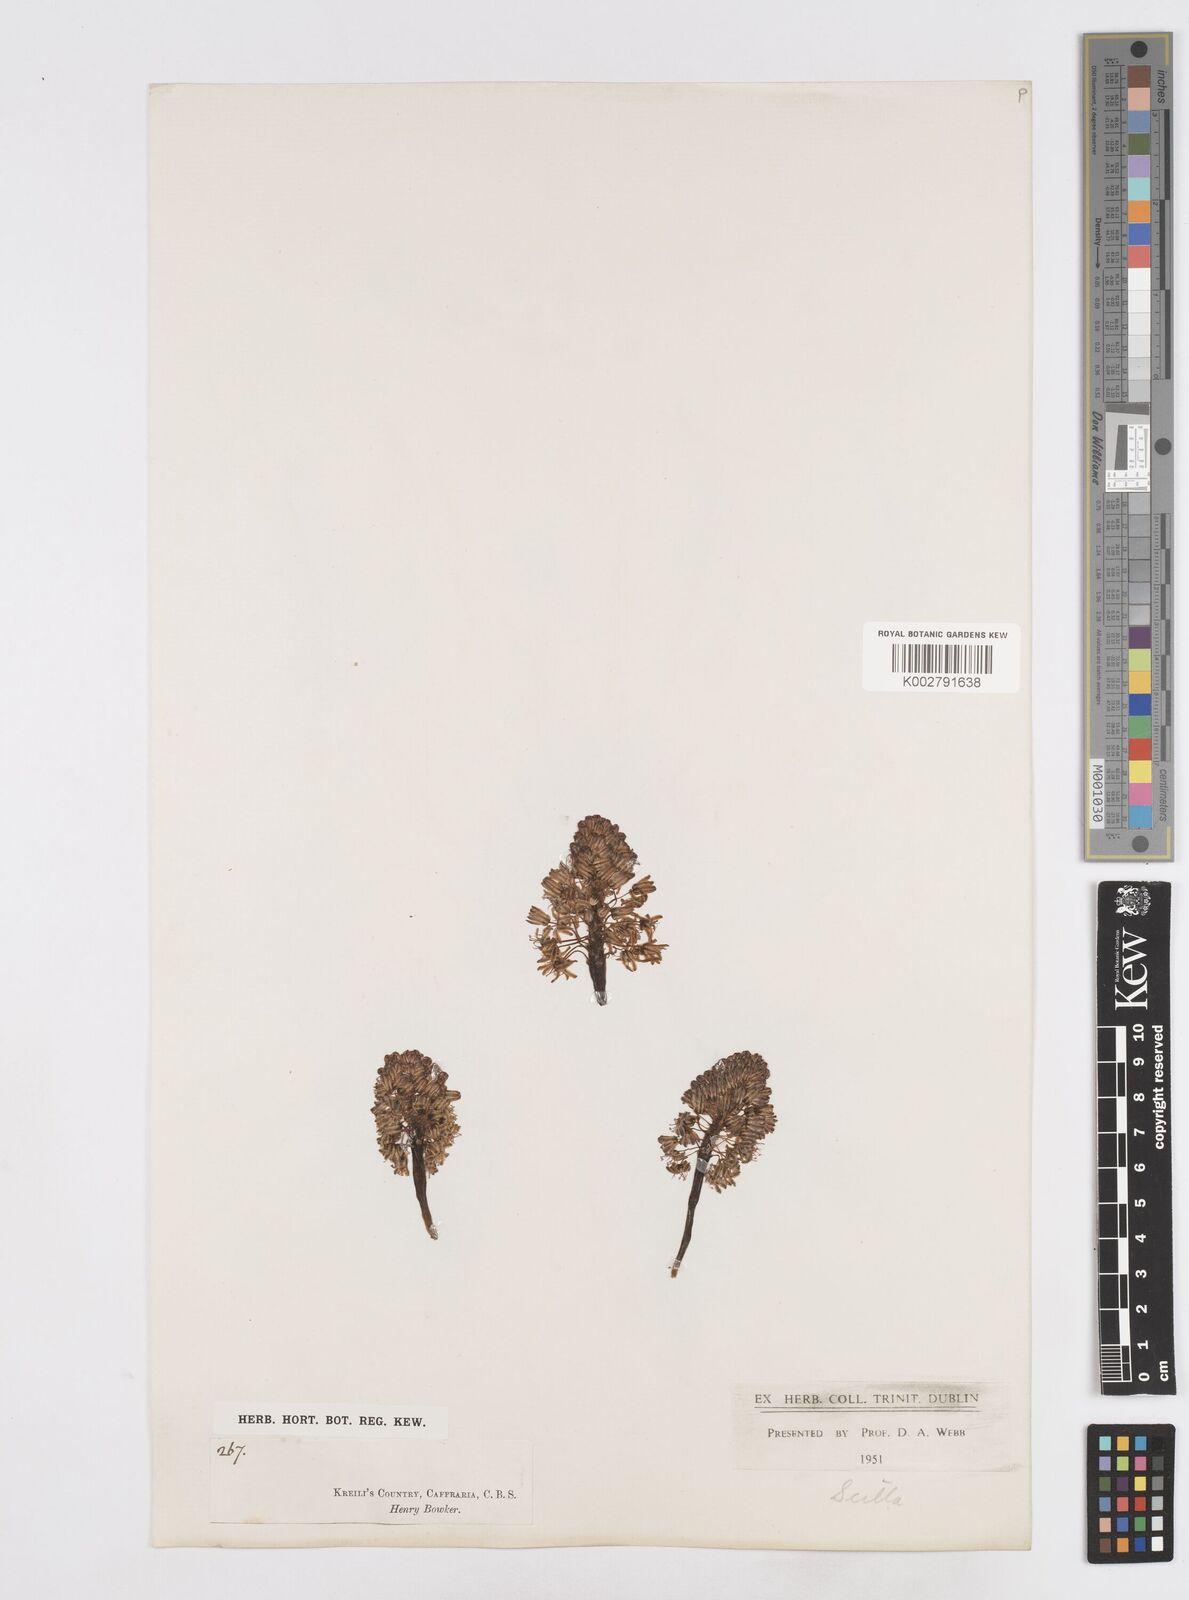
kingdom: Plantae
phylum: Tracheophyta
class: Liliopsida
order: Asparagales
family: Asparagaceae
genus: Scilla
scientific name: Scilla
